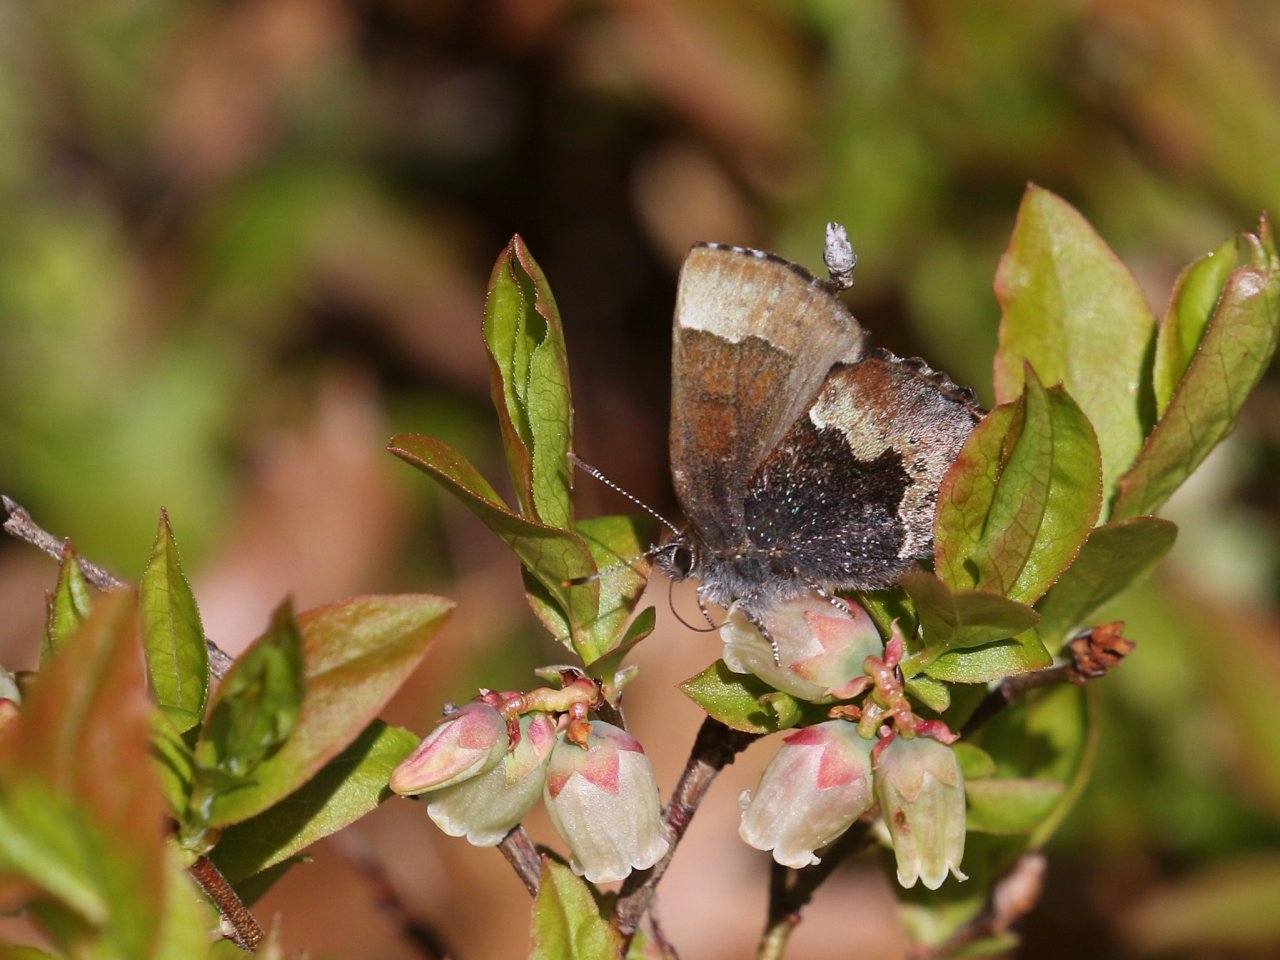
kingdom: Animalia
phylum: Arthropoda
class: Insecta
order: Lepidoptera
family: Lycaenidae
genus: Incisalia
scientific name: Incisalia henrici
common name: Henry's Elfin
